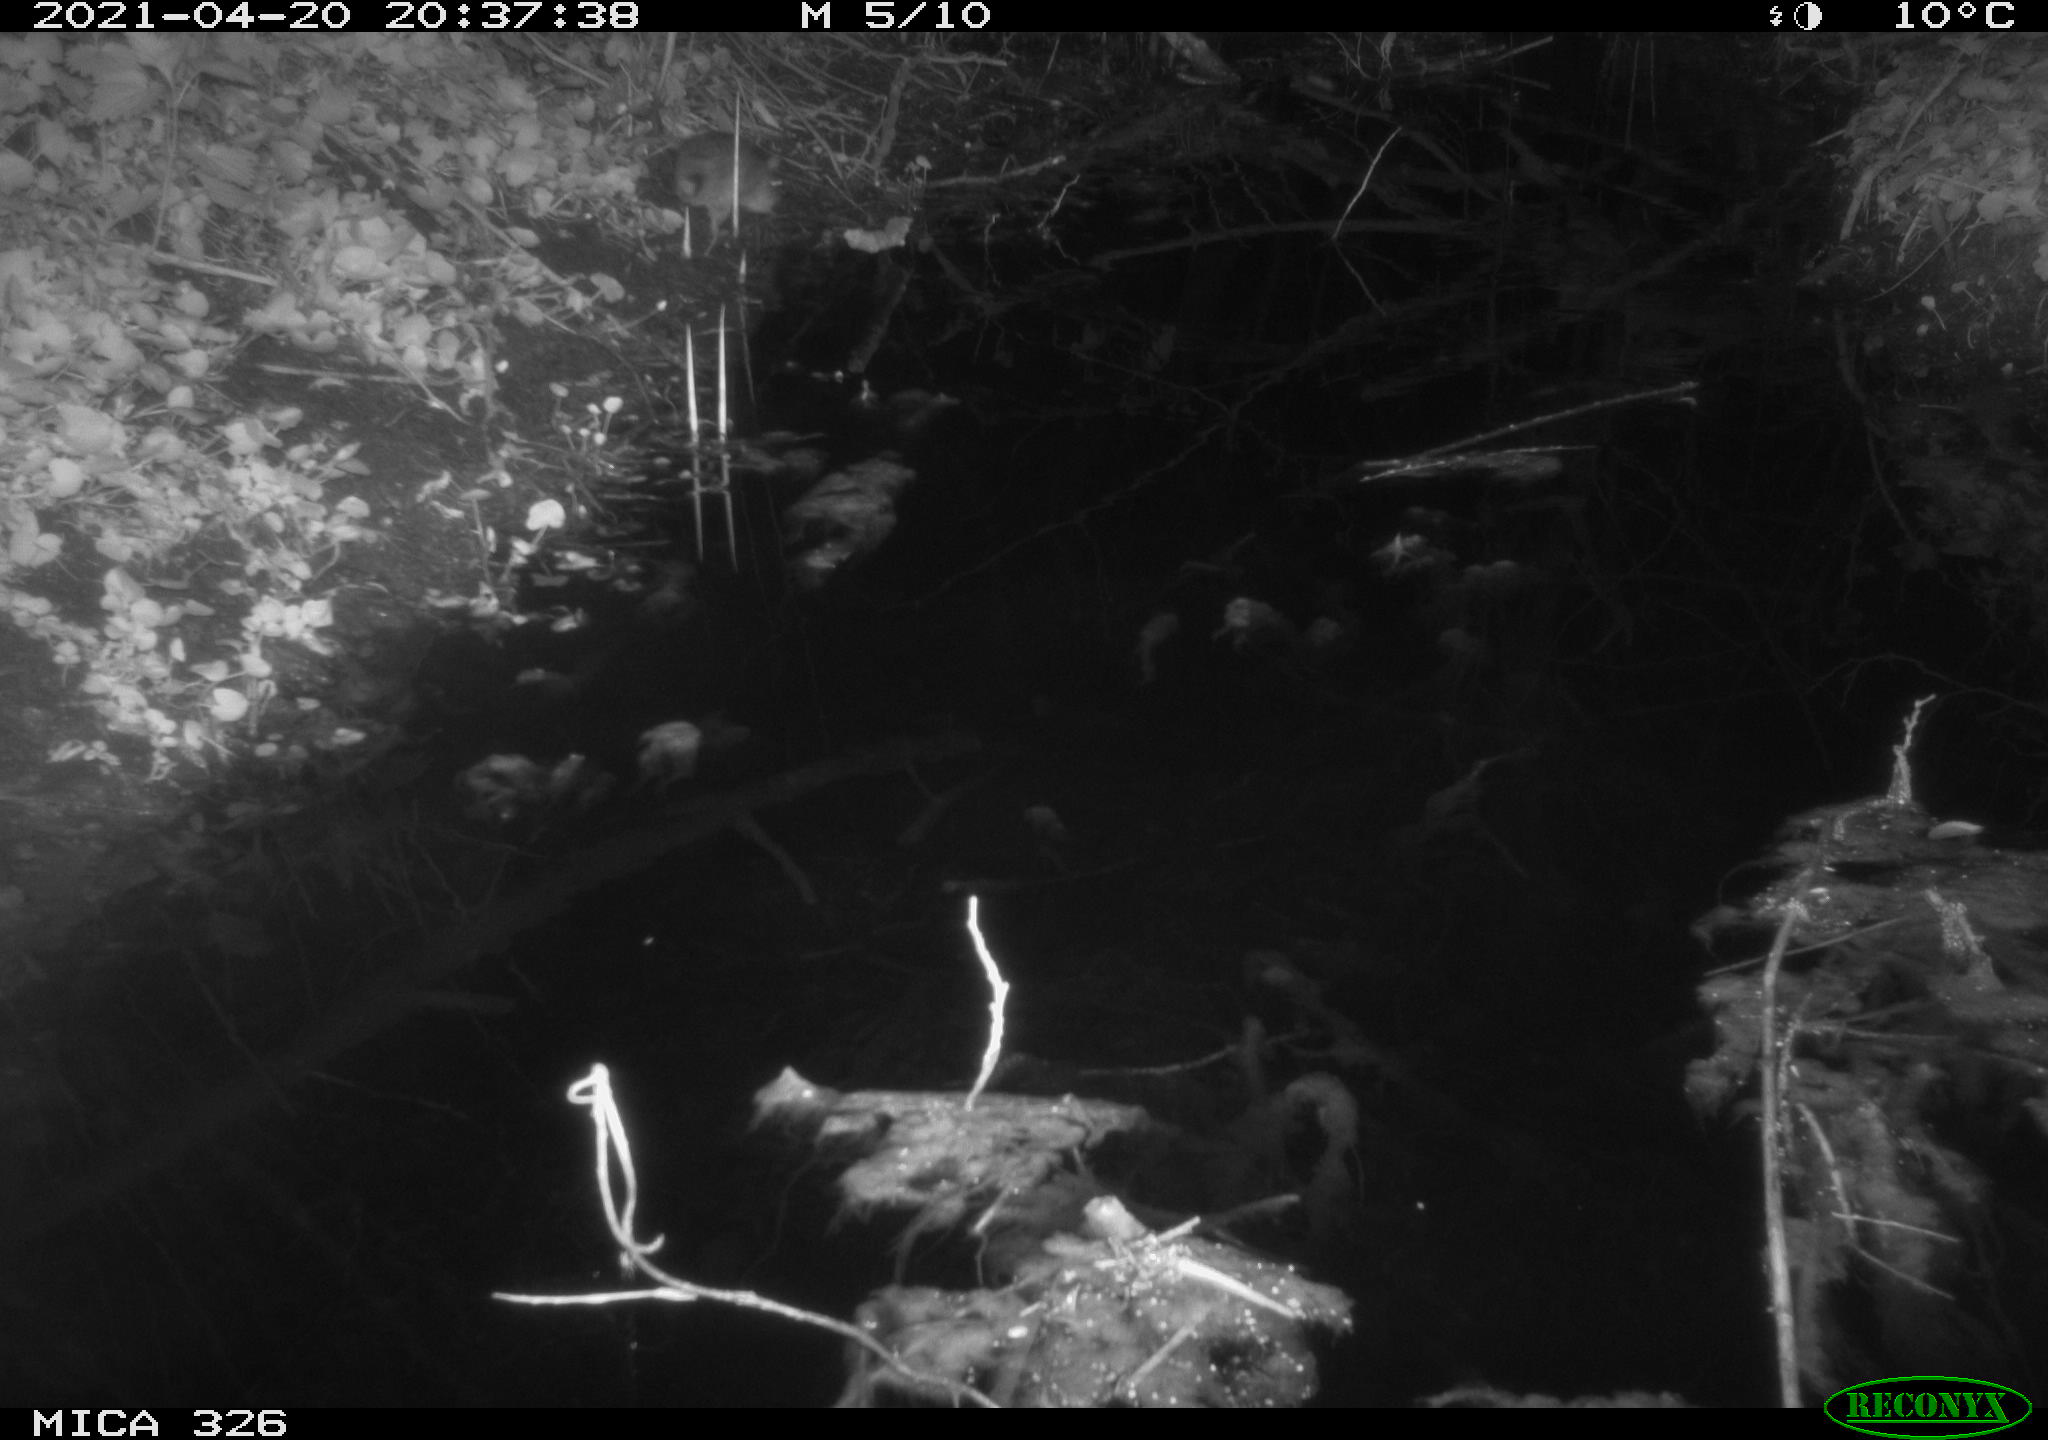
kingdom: Animalia
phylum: Chordata
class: Mammalia
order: Rodentia
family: Muridae
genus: Rattus
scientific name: Rattus norvegicus
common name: Brown rat
